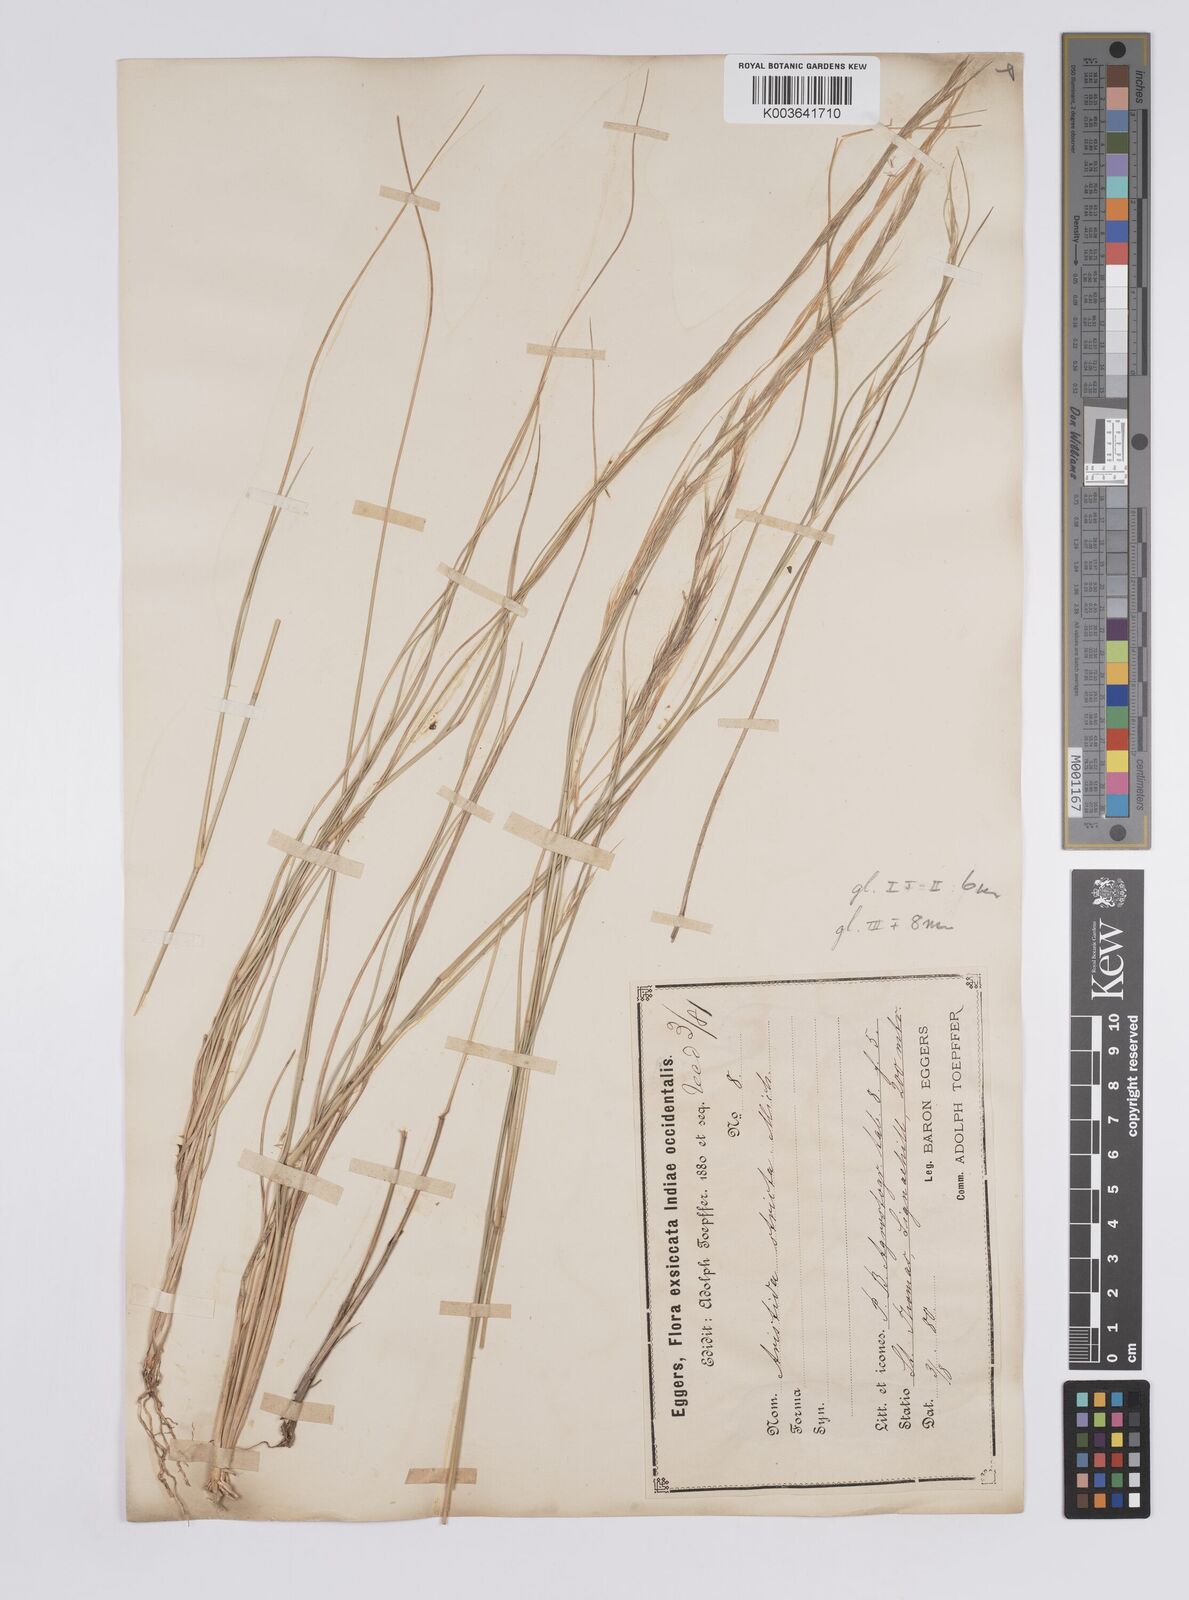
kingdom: Plantae
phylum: Tracheophyta
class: Liliopsida
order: Poales
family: Poaceae
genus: Aristida
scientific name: Aristida
